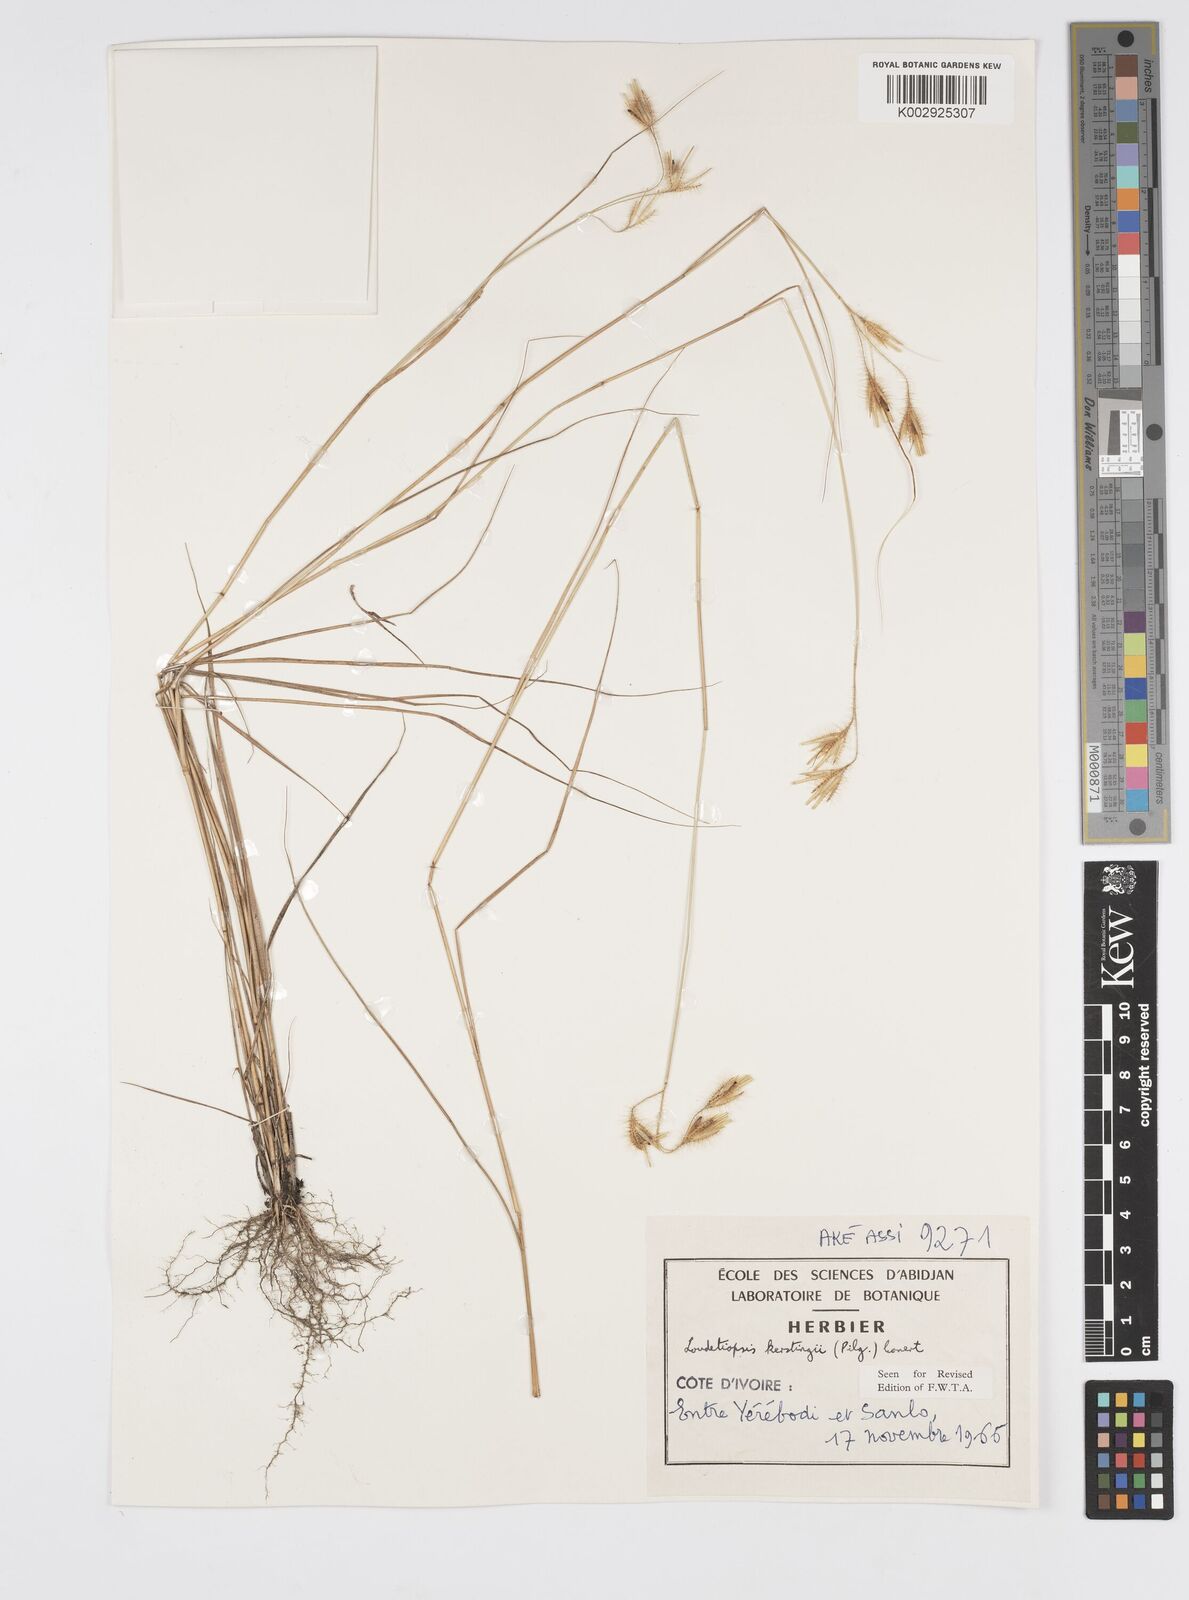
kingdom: Plantae
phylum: Tracheophyta
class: Liliopsida
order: Poales
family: Poaceae
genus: Loudetiopsis
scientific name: Loudetiopsis kerstingii
